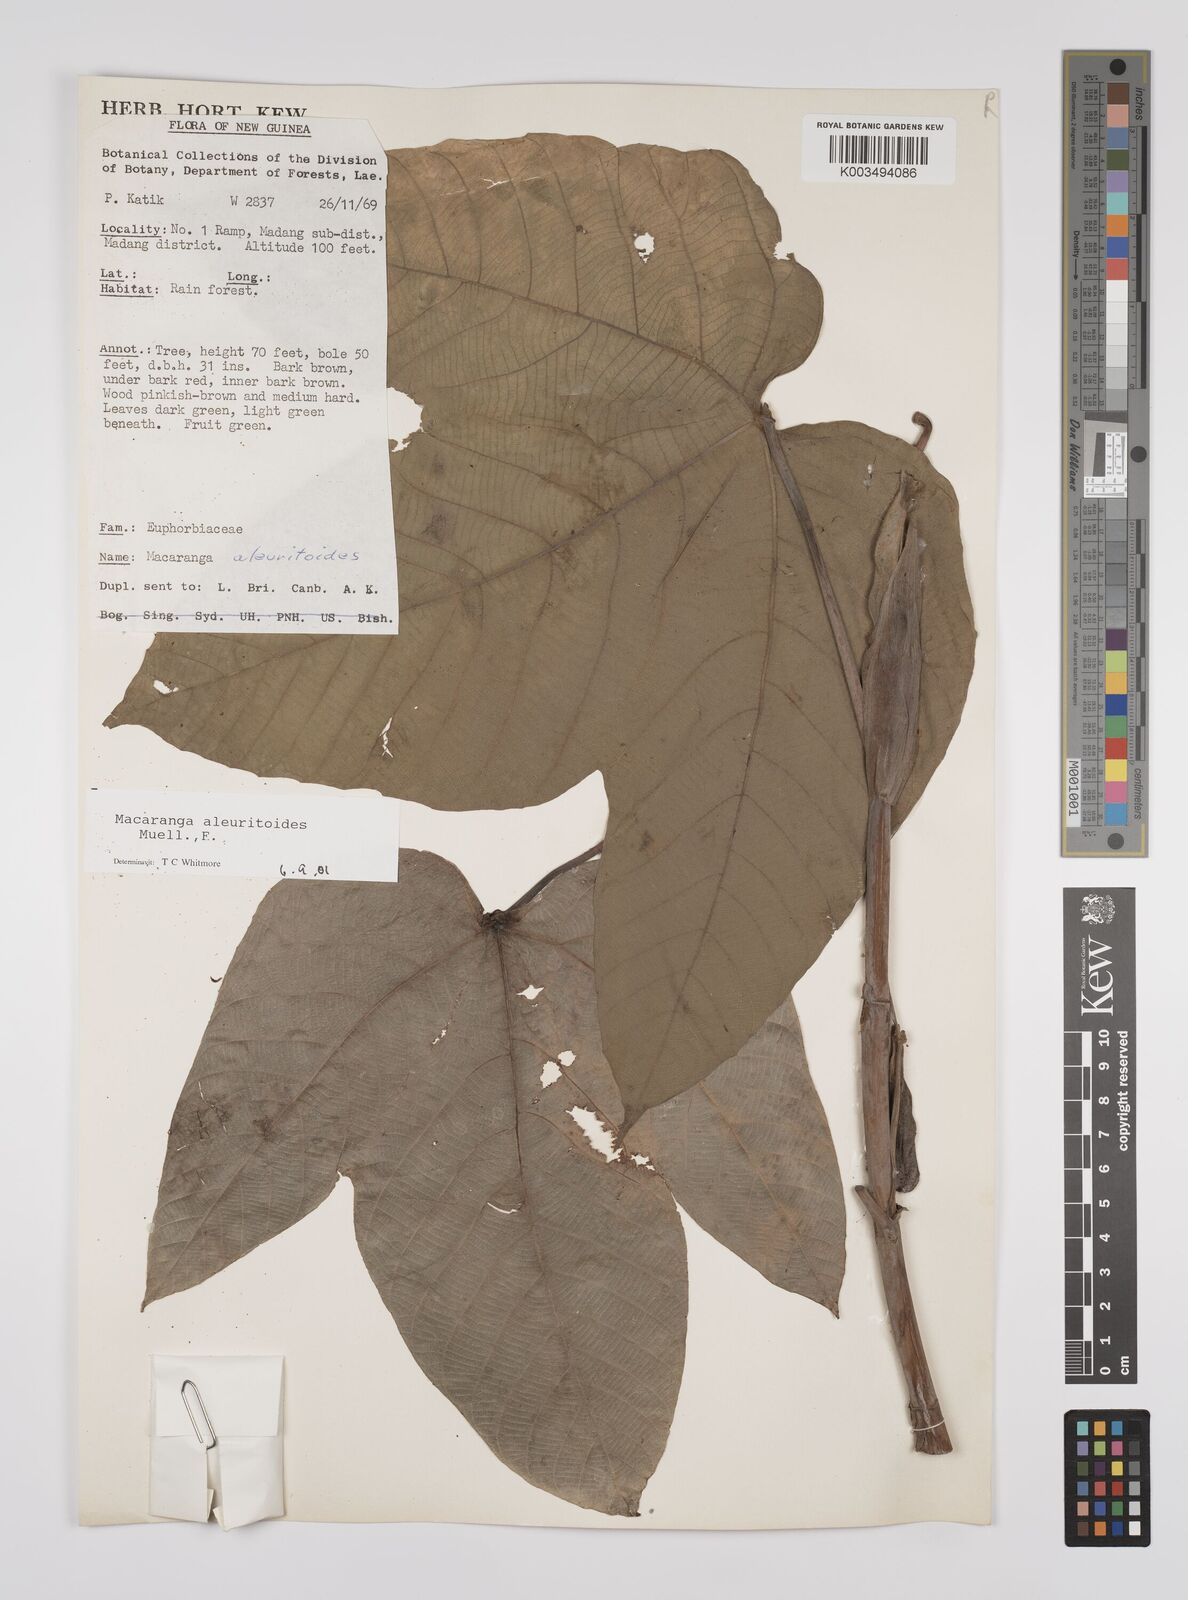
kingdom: Plantae
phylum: Tracheophyta
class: Magnoliopsida
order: Malpighiales
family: Euphorbiaceae
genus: Macaranga
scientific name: Macaranga aleuritoides
